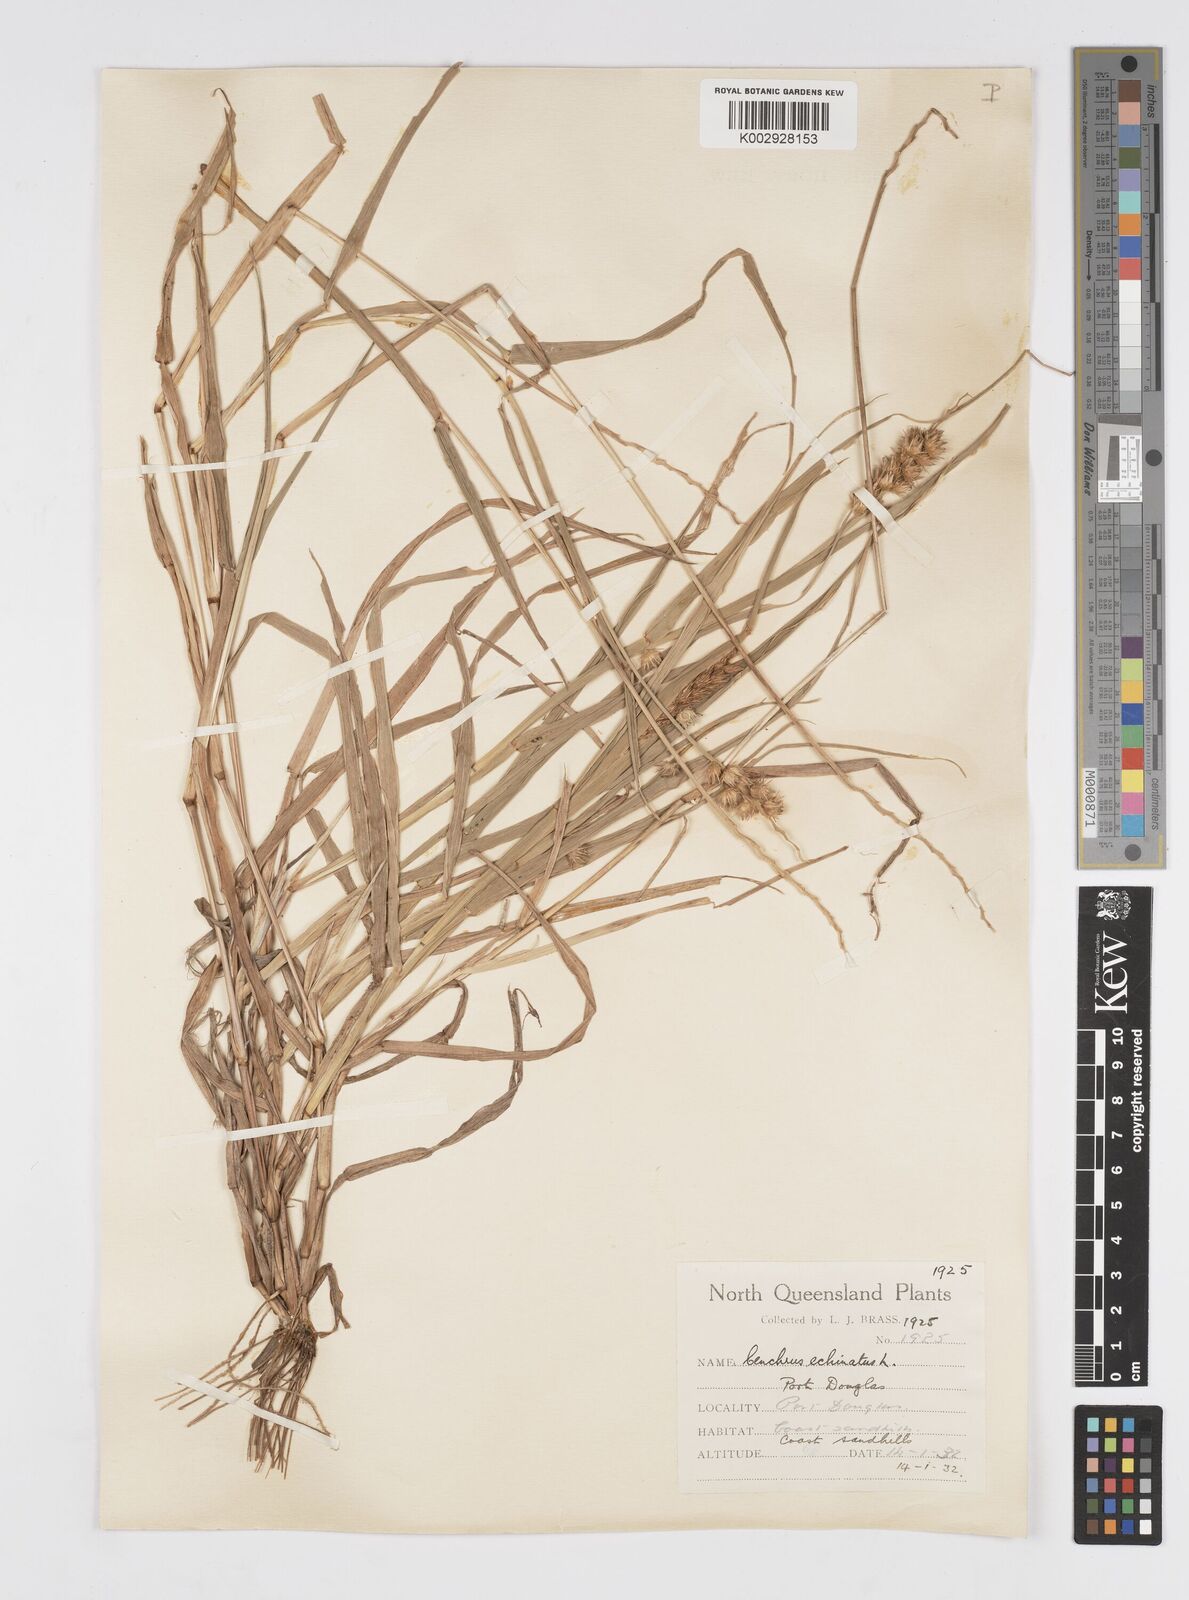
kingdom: Plantae
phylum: Tracheophyta
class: Liliopsida
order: Poales
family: Poaceae
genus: Cenchrus
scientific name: Cenchrus echinatus
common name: Southern sandbur
